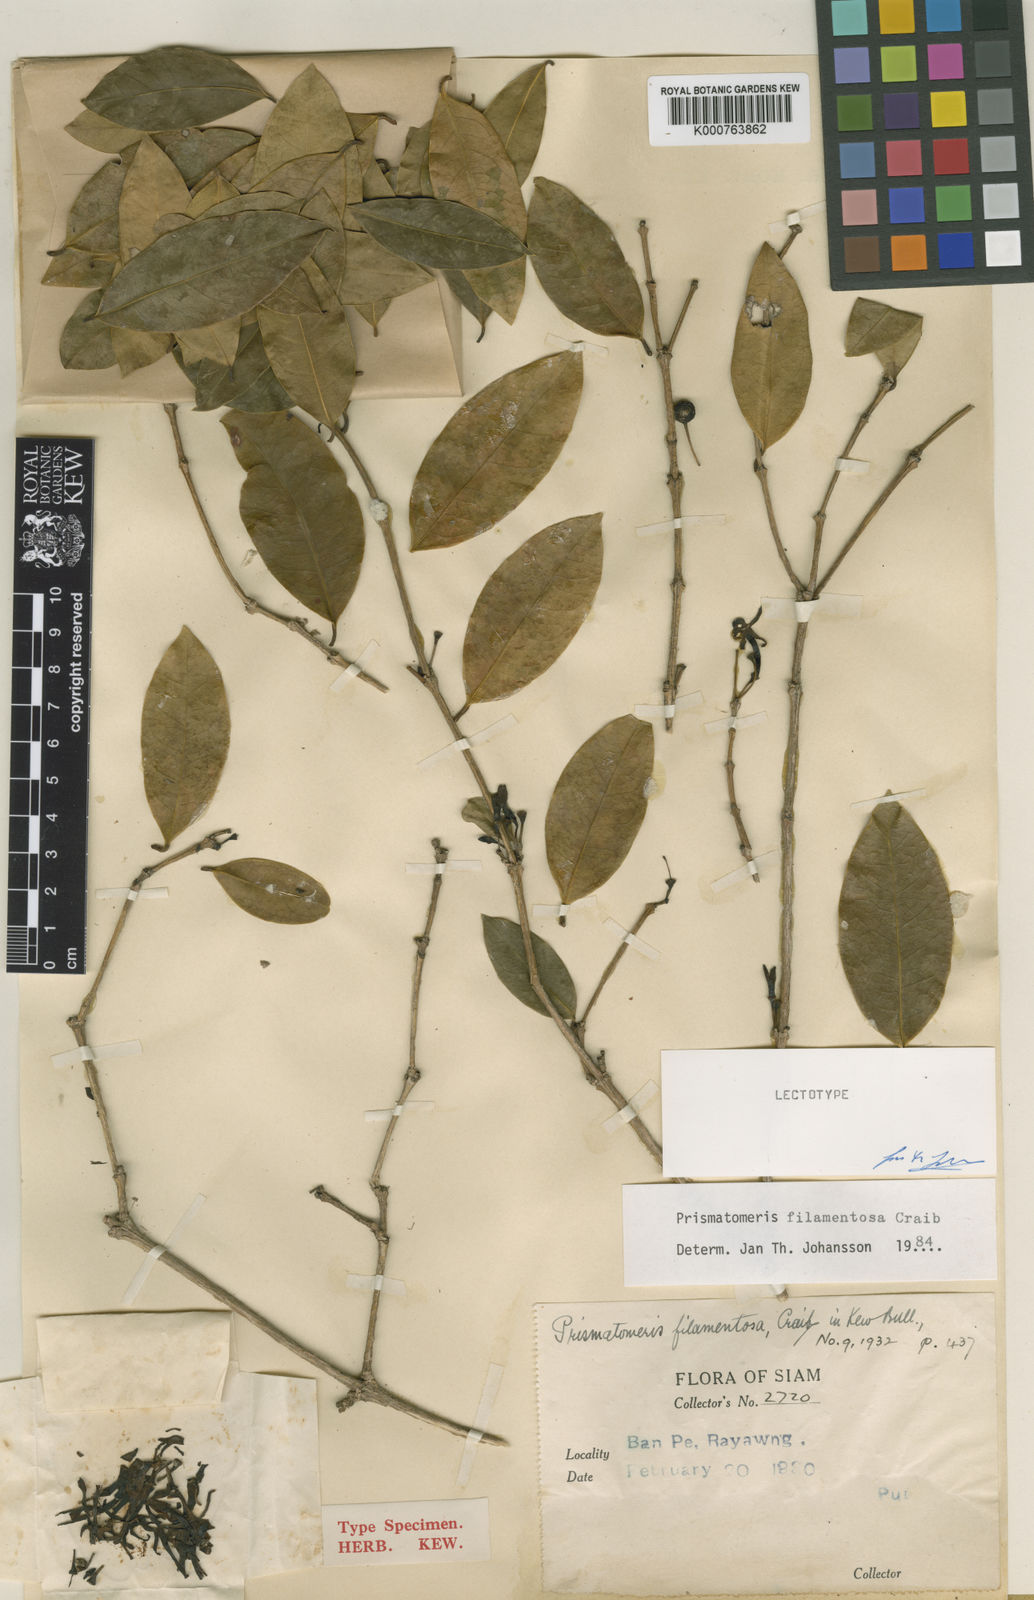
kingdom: Plantae
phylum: Tracheophyta
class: Magnoliopsida
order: Gentianales
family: Rubiaceae
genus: Prismatomeris
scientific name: Prismatomeris filamentosa
